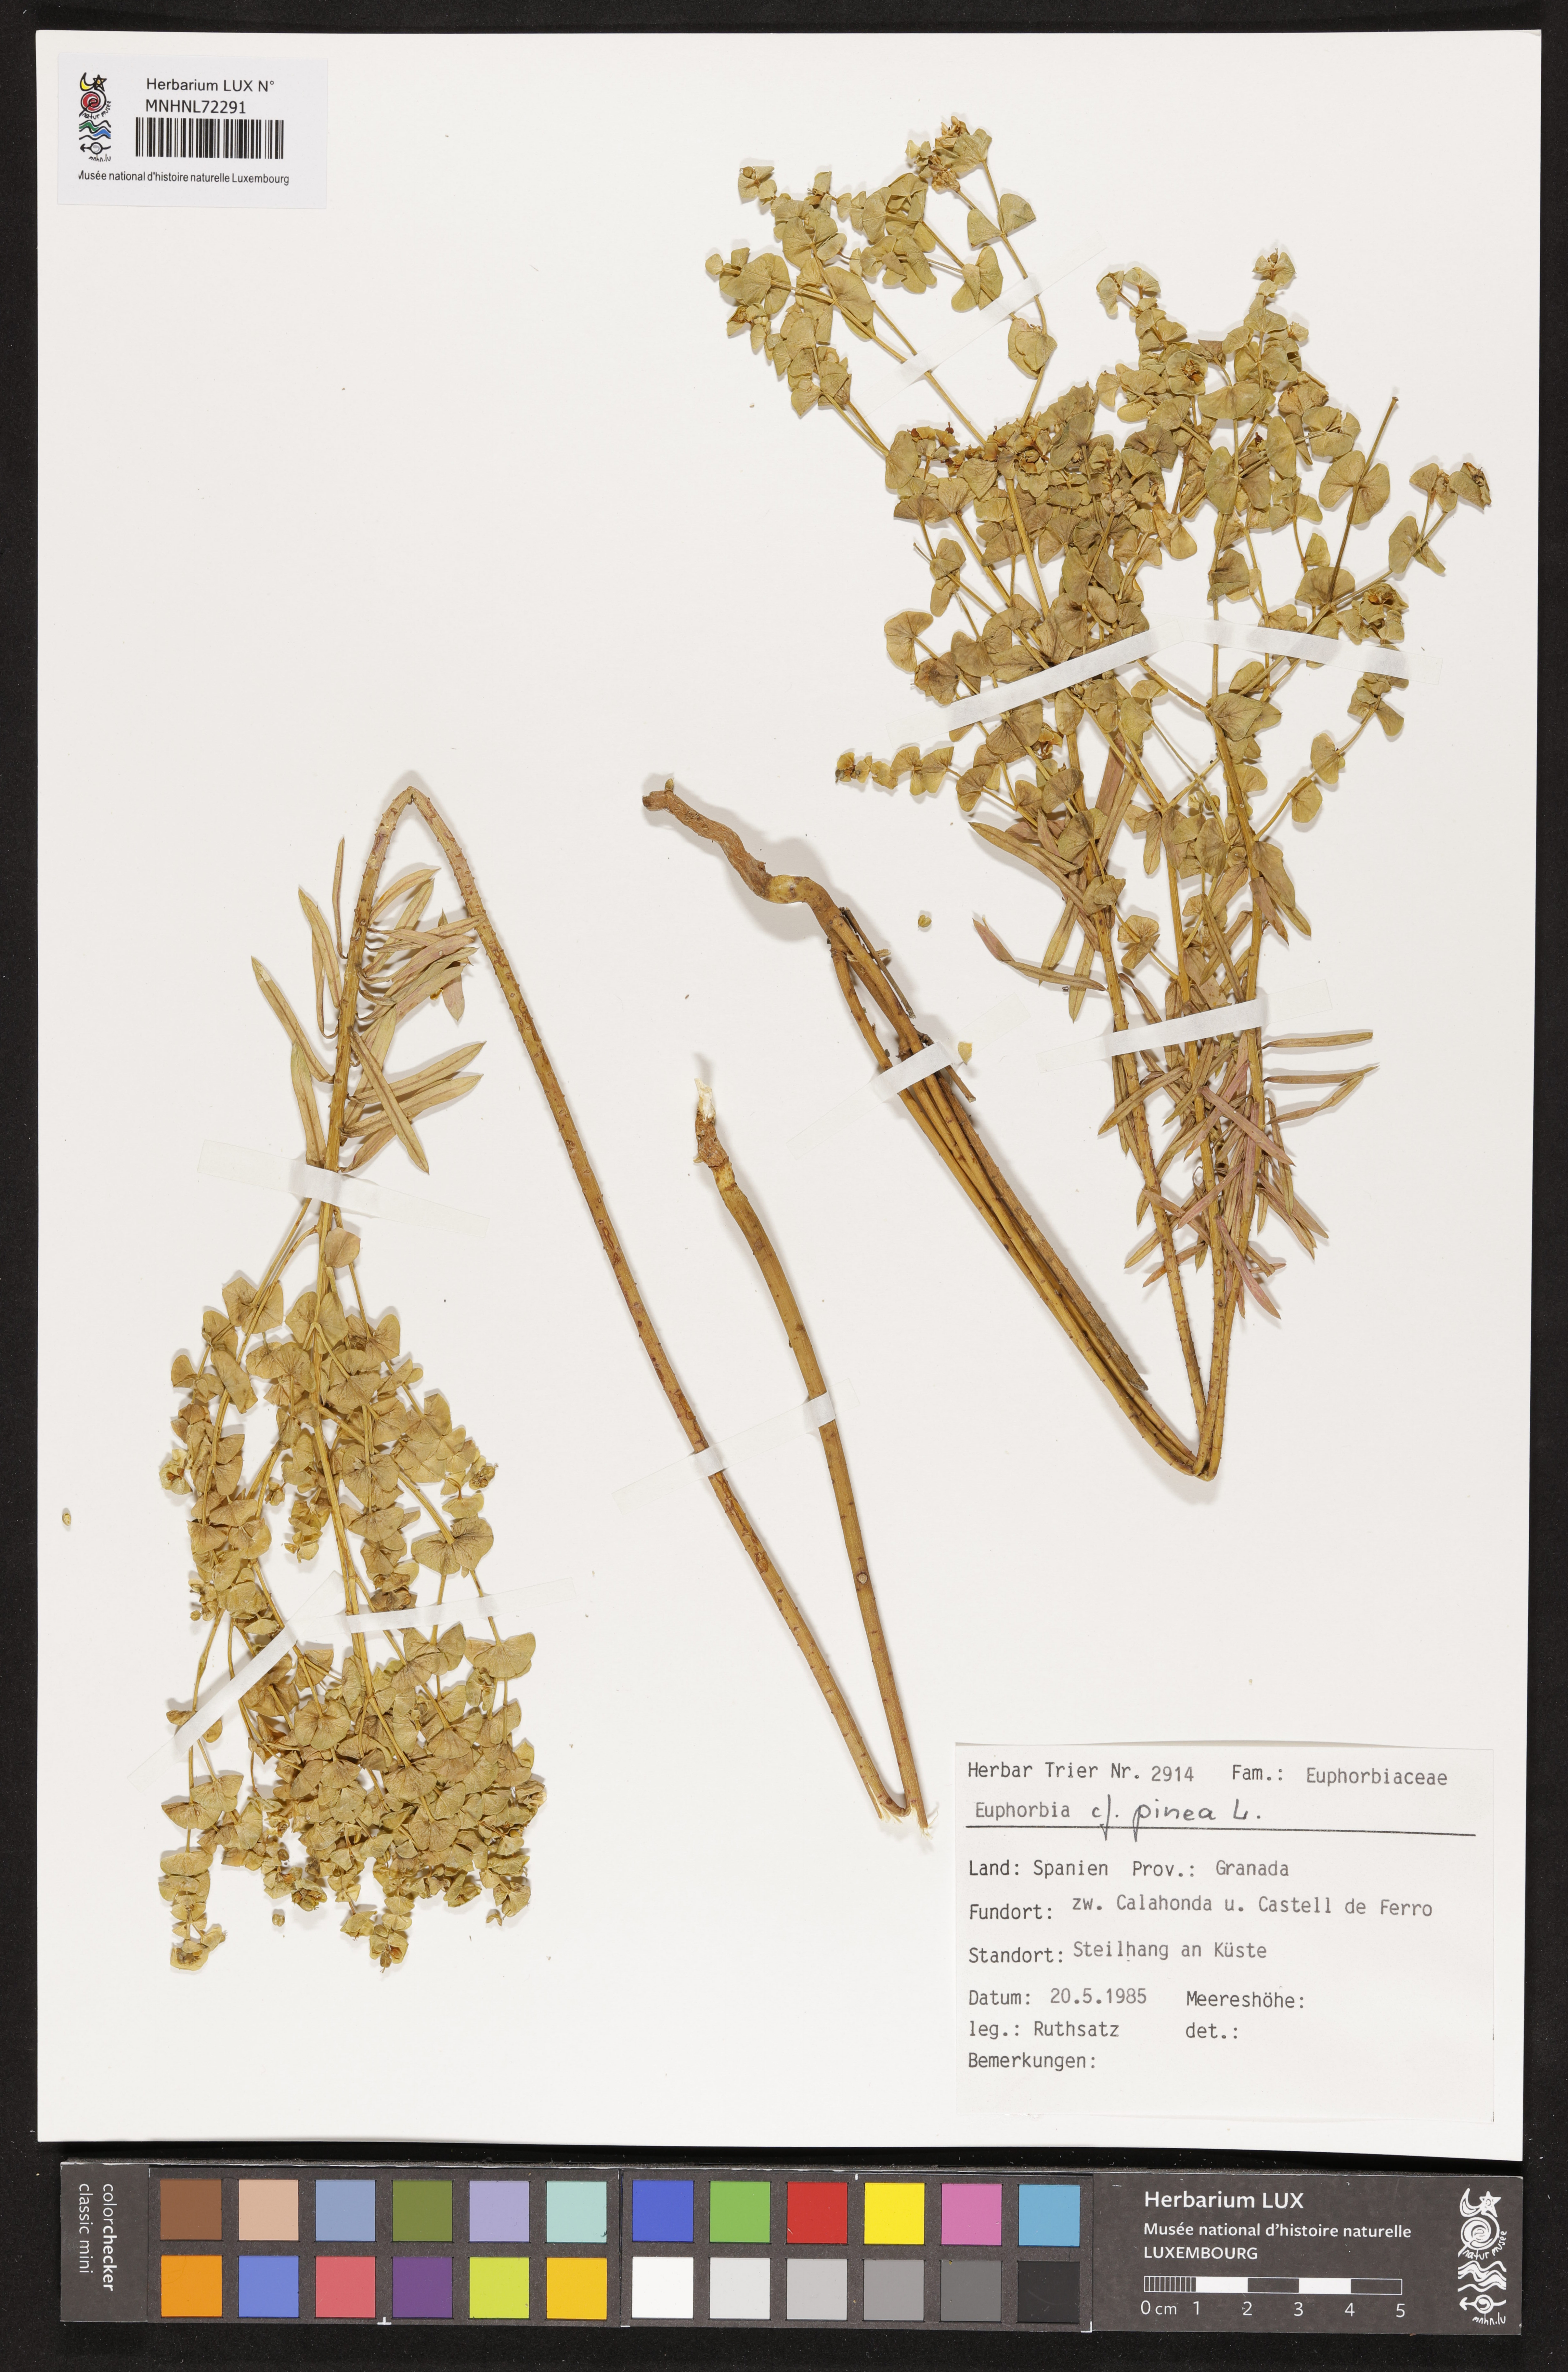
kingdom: Plantae
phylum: Tracheophyta
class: Magnoliopsida
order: Malpighiales
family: Euphorbiaceae
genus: Euphorbia
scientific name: Euphorbia segetalis
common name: Corn spurge
